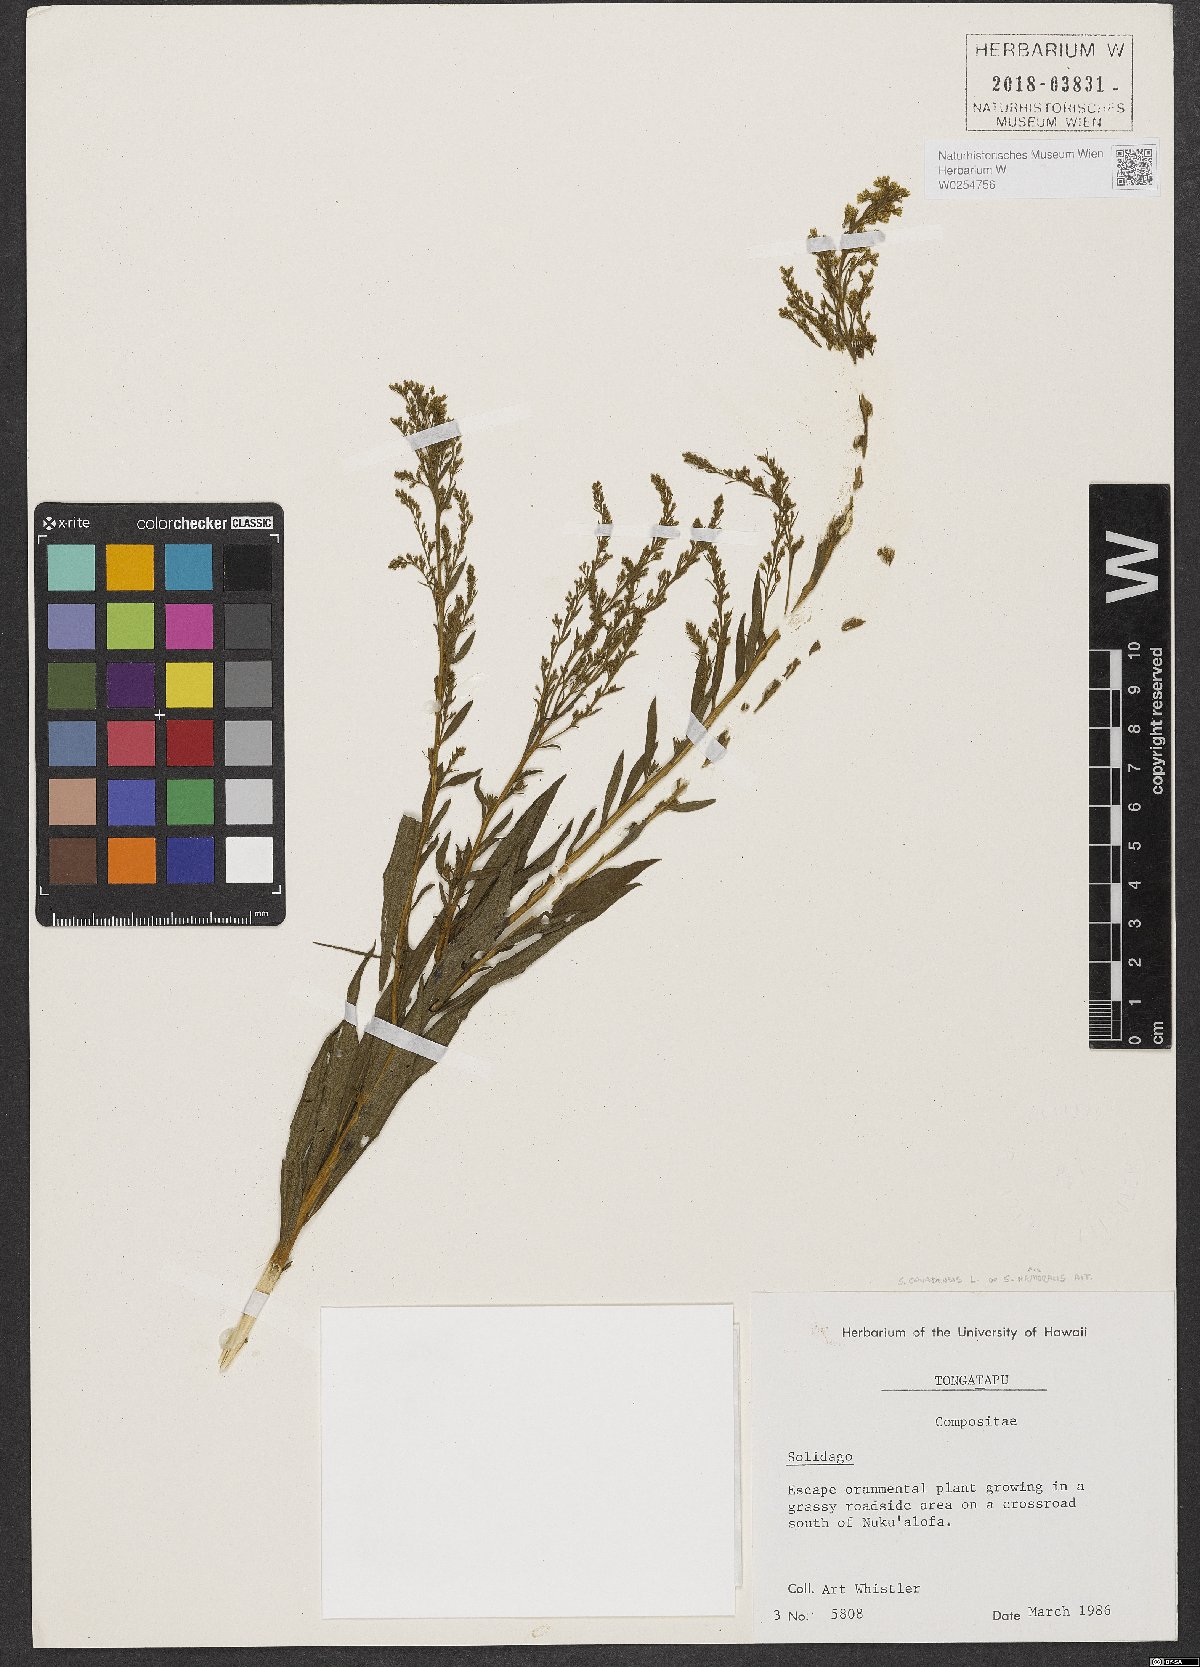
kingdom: Plantae
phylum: Tracheophyta
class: Magnoliopsida
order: Asterales
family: Asteraceae
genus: Solidago
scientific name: Solidago
